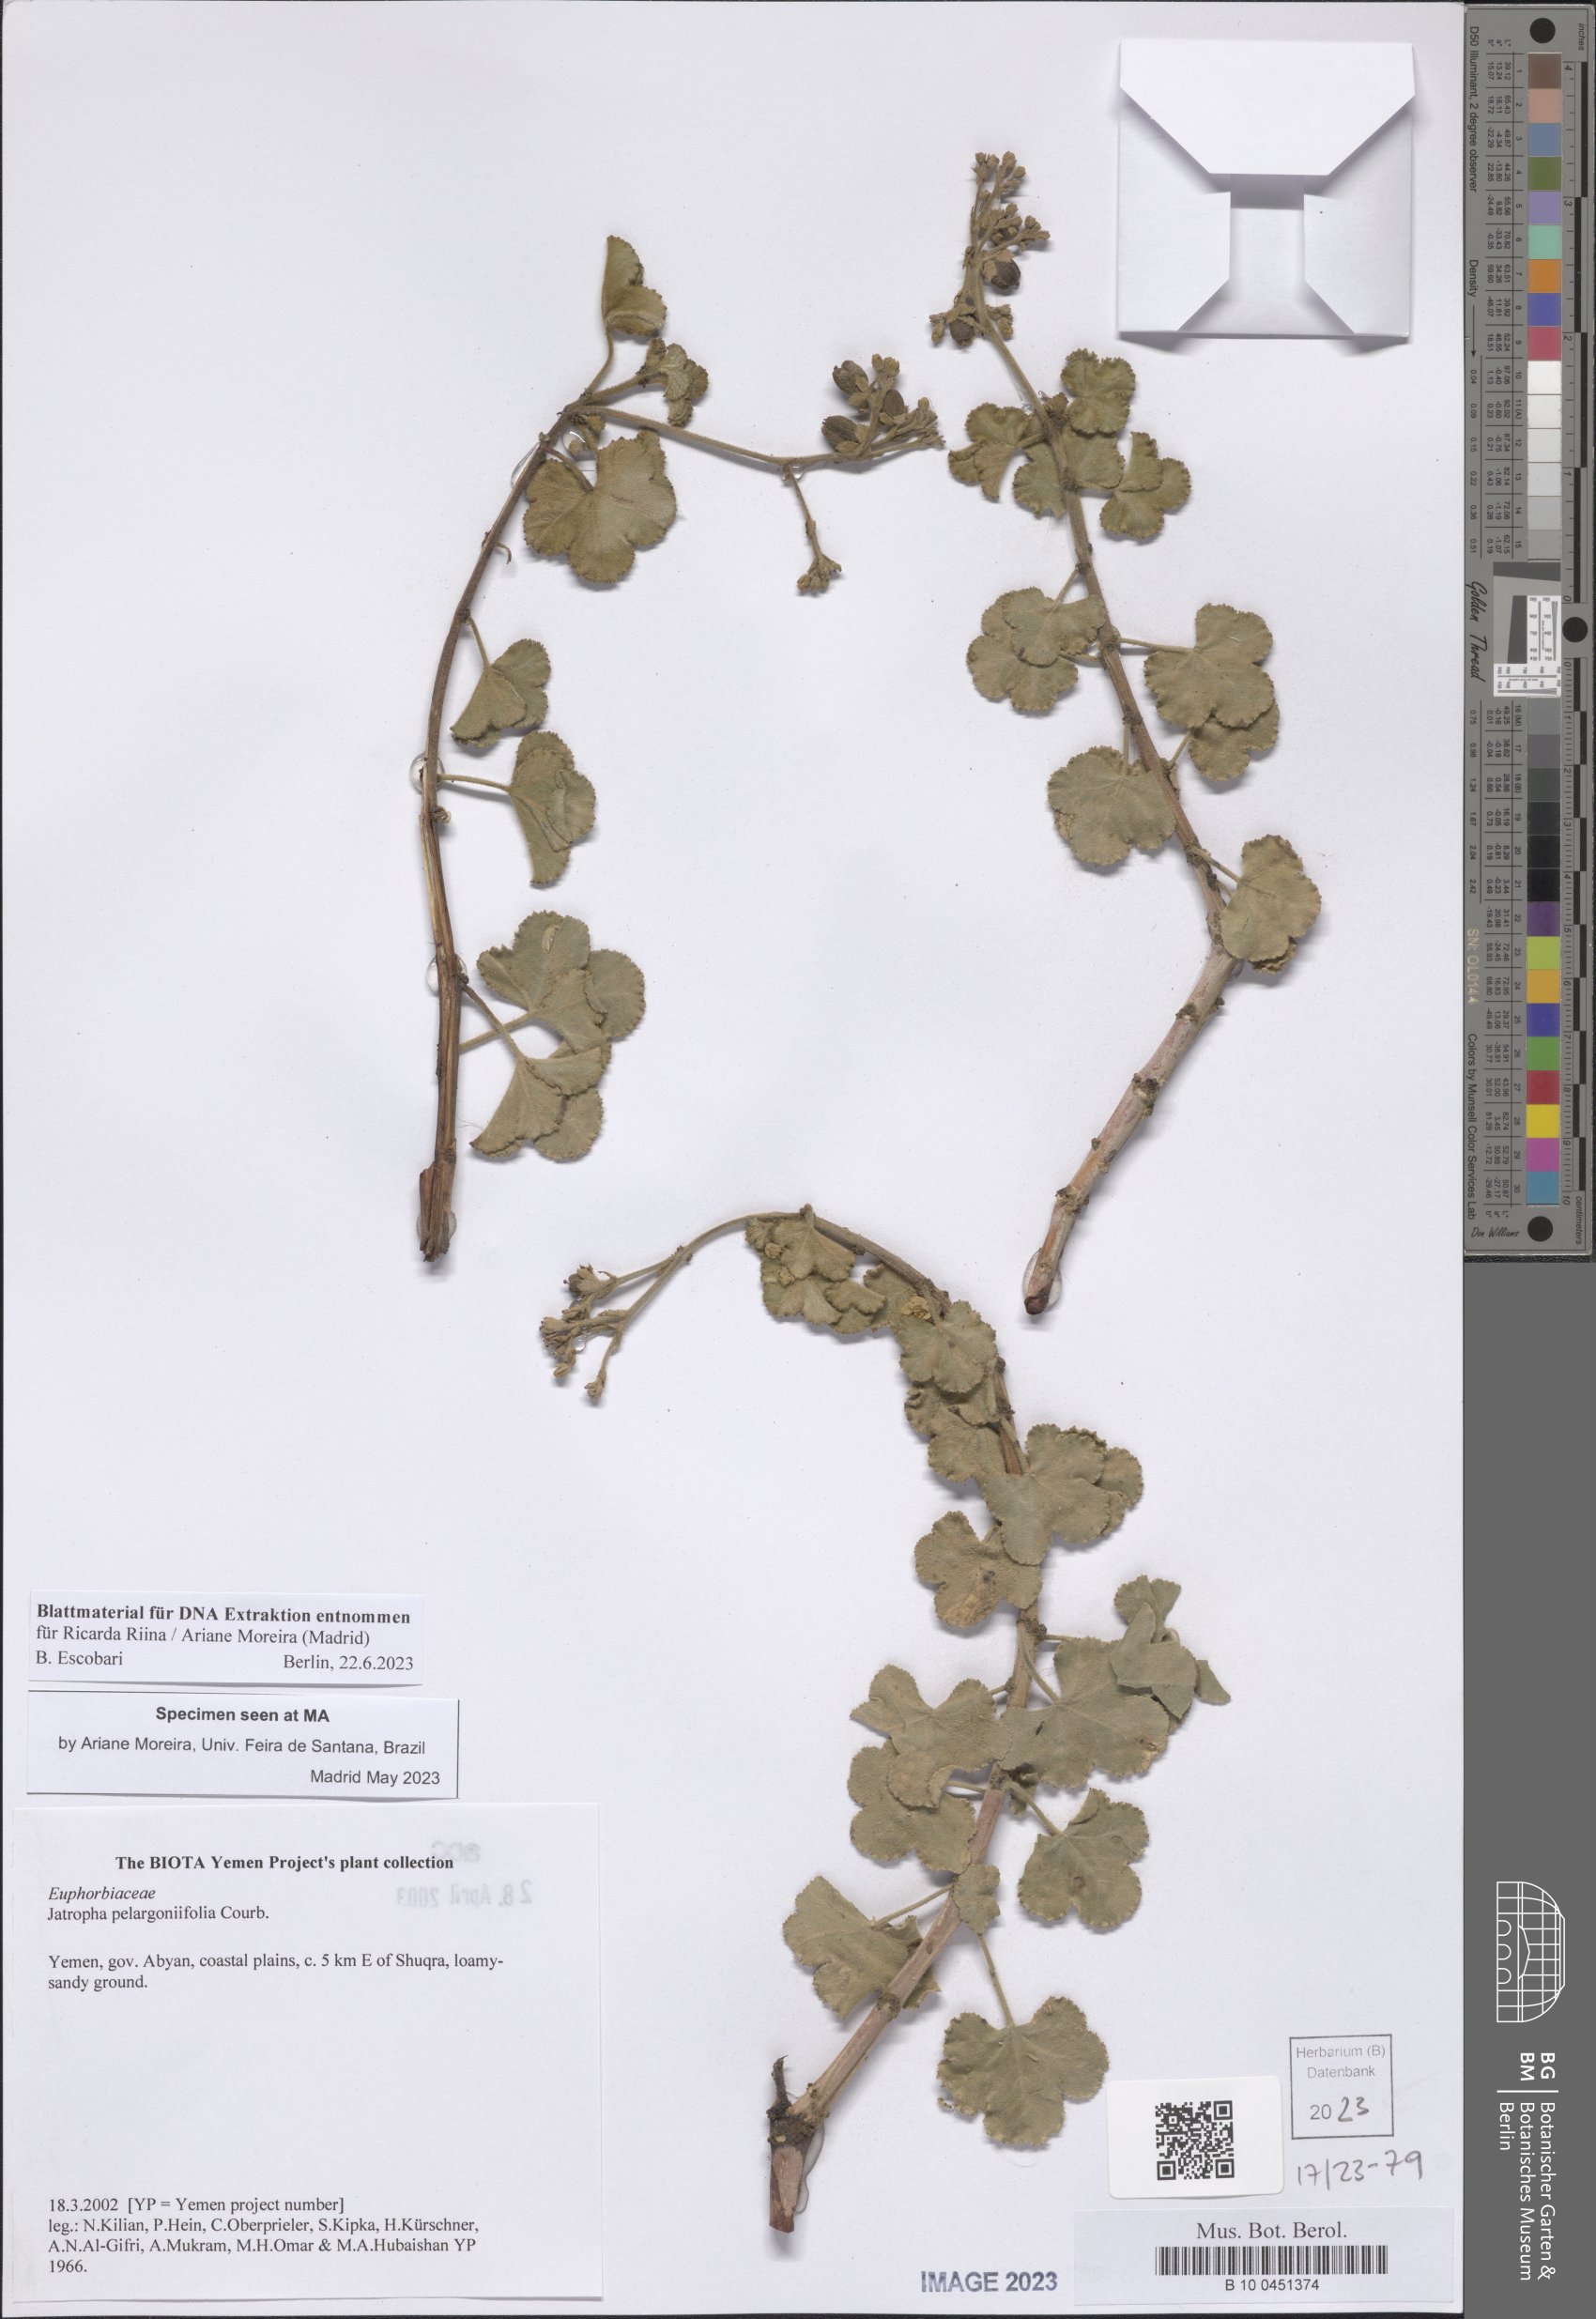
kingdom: Plantae
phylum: Tracheophyta
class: Magnoliopsida
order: Malpighiales
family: Euphorbiaceae
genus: Jatropha
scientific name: Jatropha pelargoniifolia
